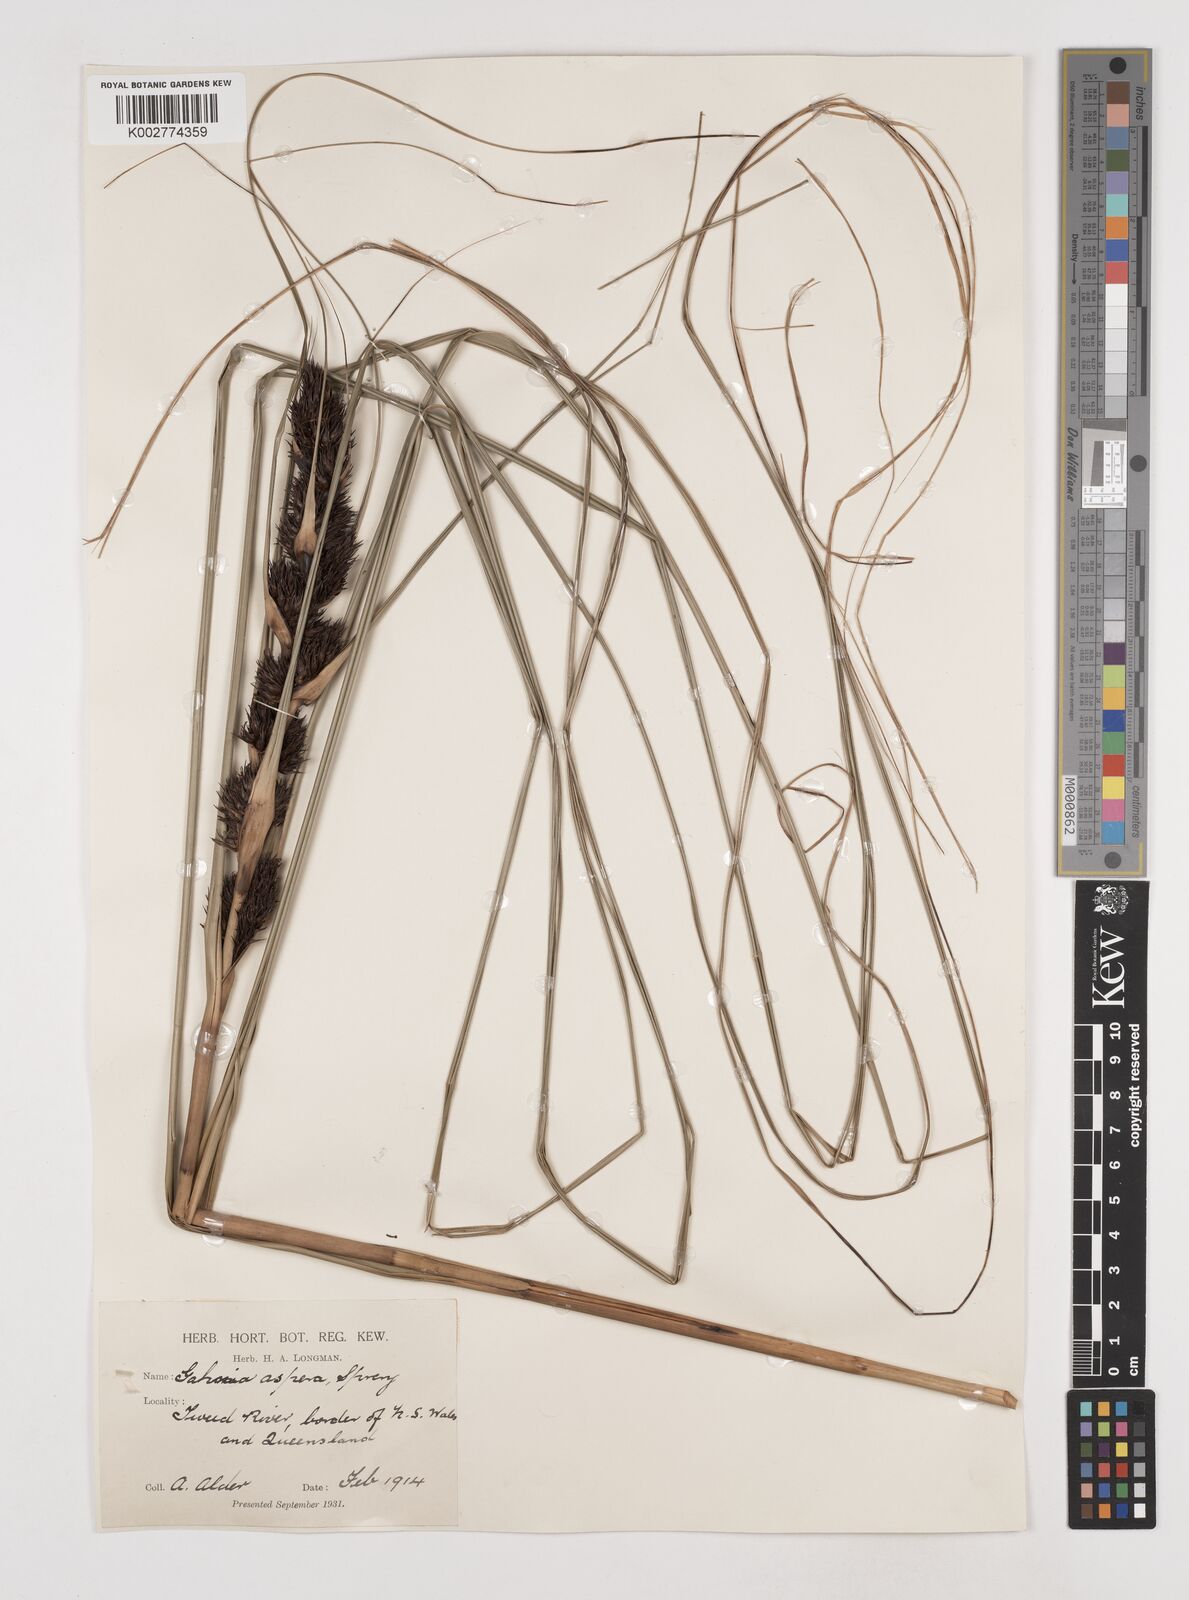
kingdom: Plantae
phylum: Tracheophyta
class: Liliopsida
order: Poales
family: Cyperaceae
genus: Gahnia
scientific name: Gahnia aspera
